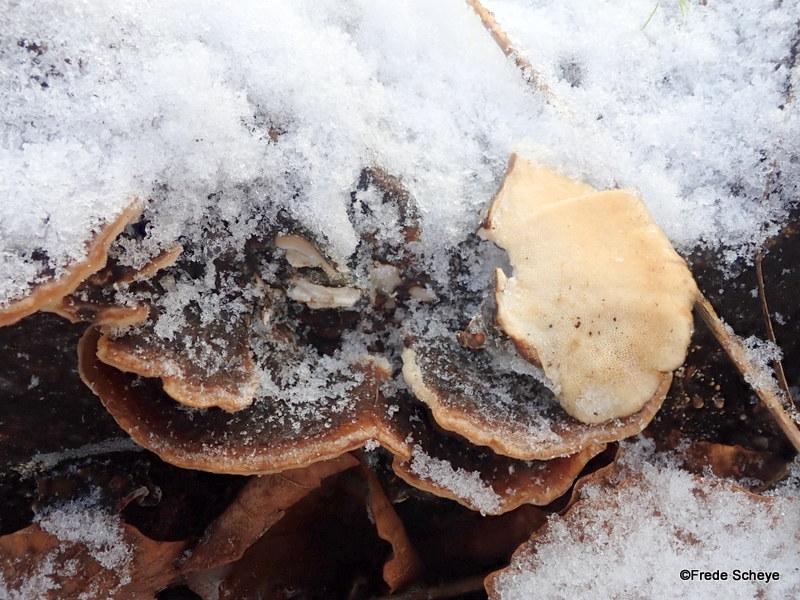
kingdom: Fungi
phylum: Basidiomycota
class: Agaricomycetes
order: Polyporales
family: Polyporaceae
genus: Trametes
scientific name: Trametes versicolor
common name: broget læderporesvamp
